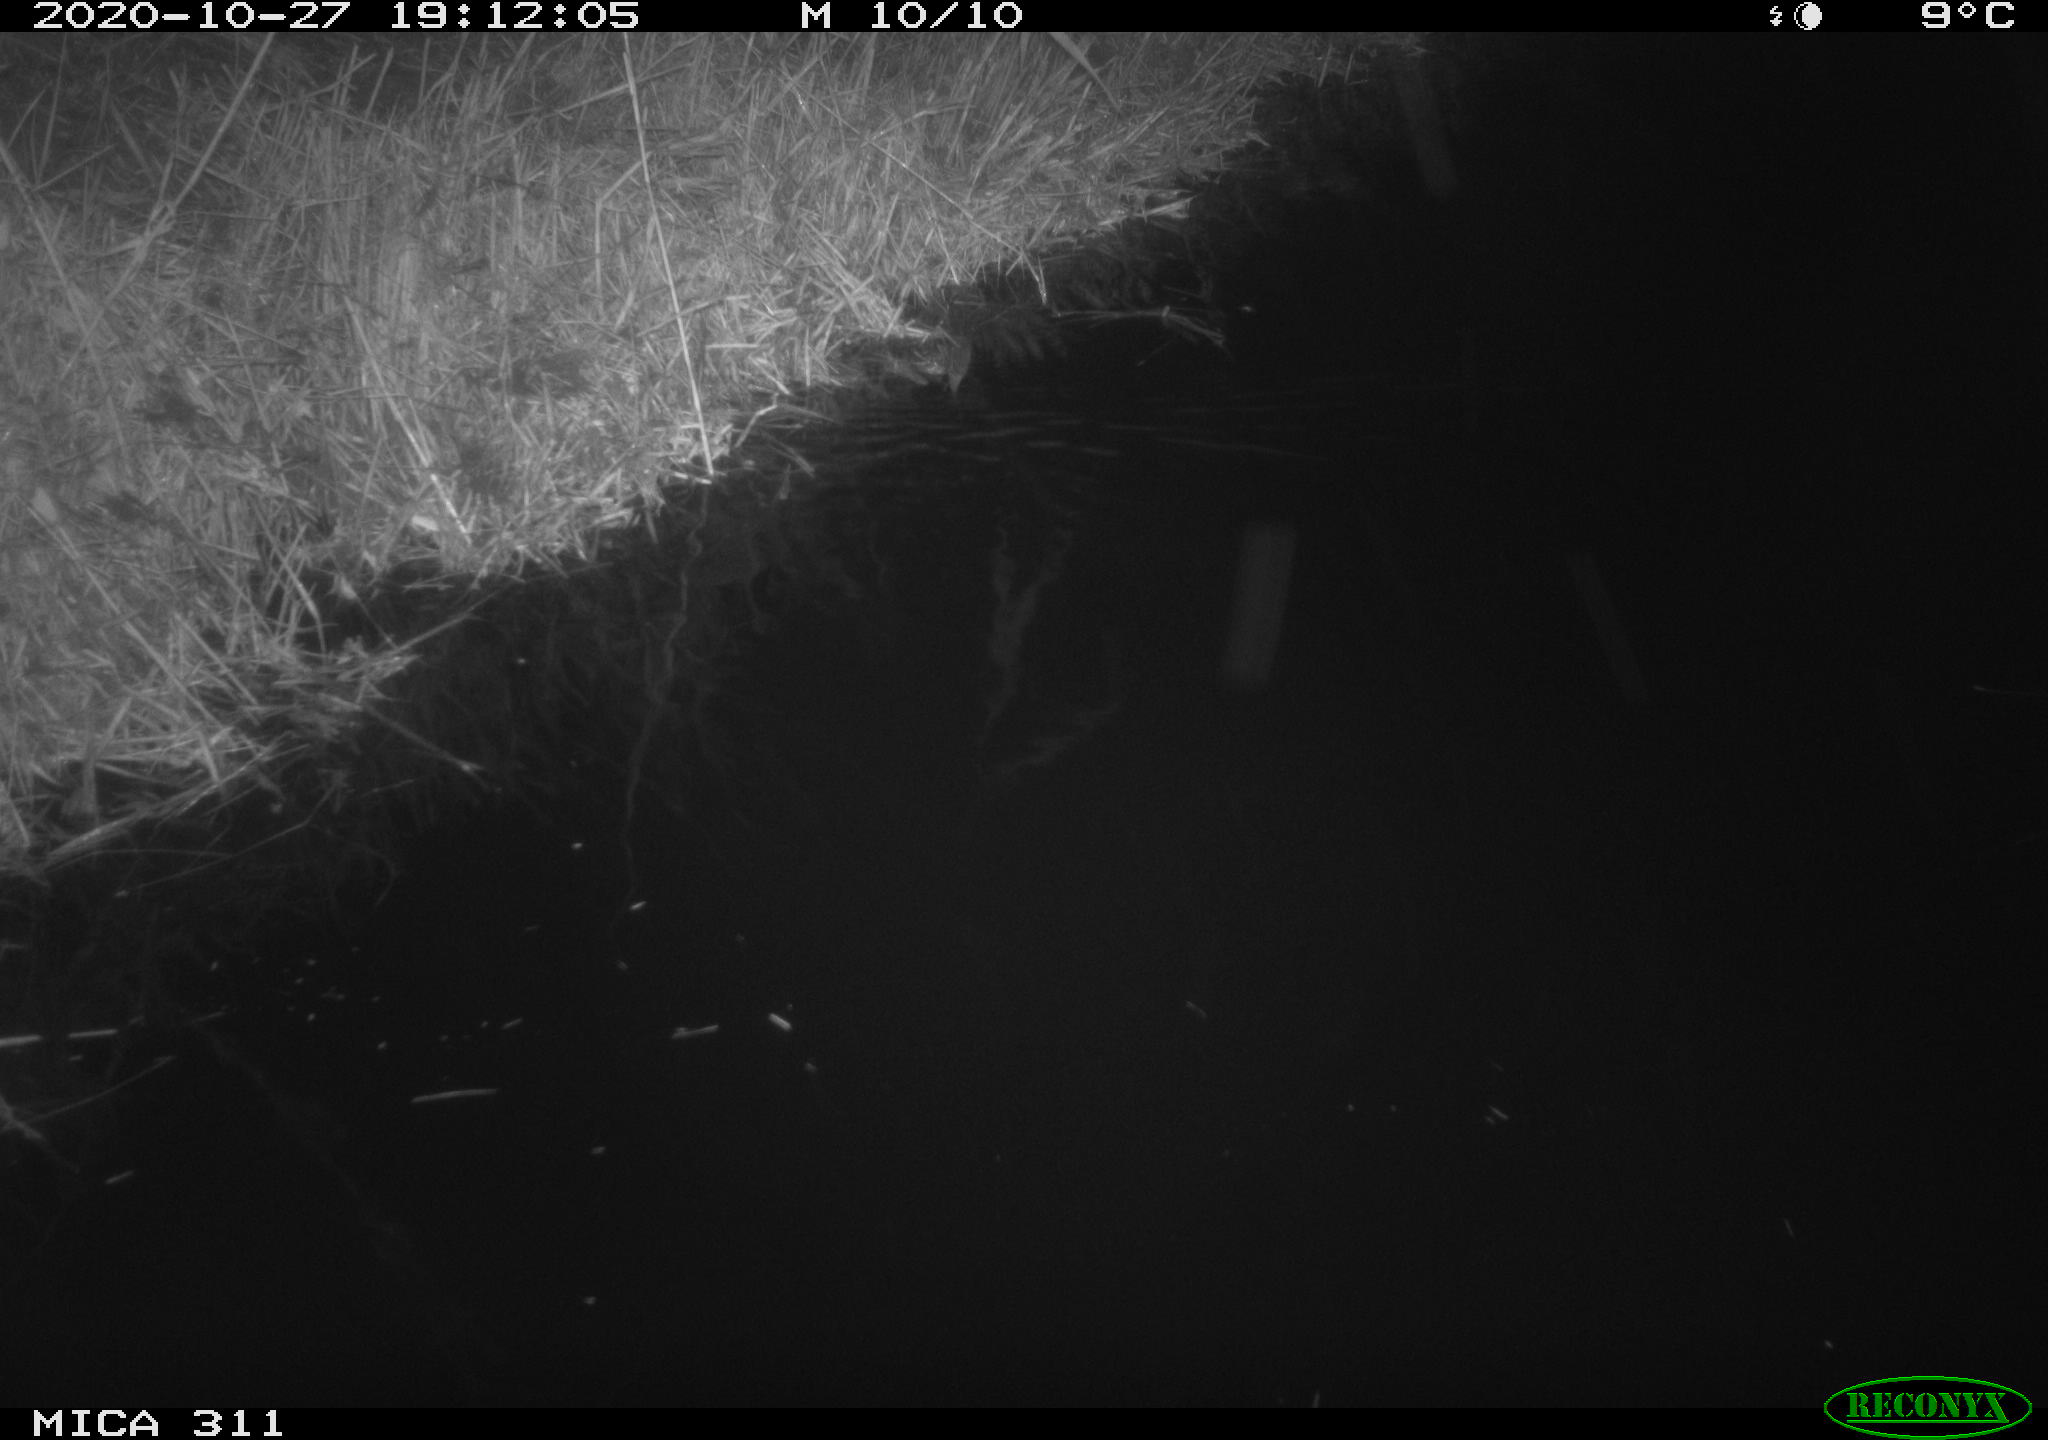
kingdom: Animalia
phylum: Chordata
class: Mammalia
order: Rodentia
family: Muridae
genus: Rattus
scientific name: Rattus norvegicus
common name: Brown rat
